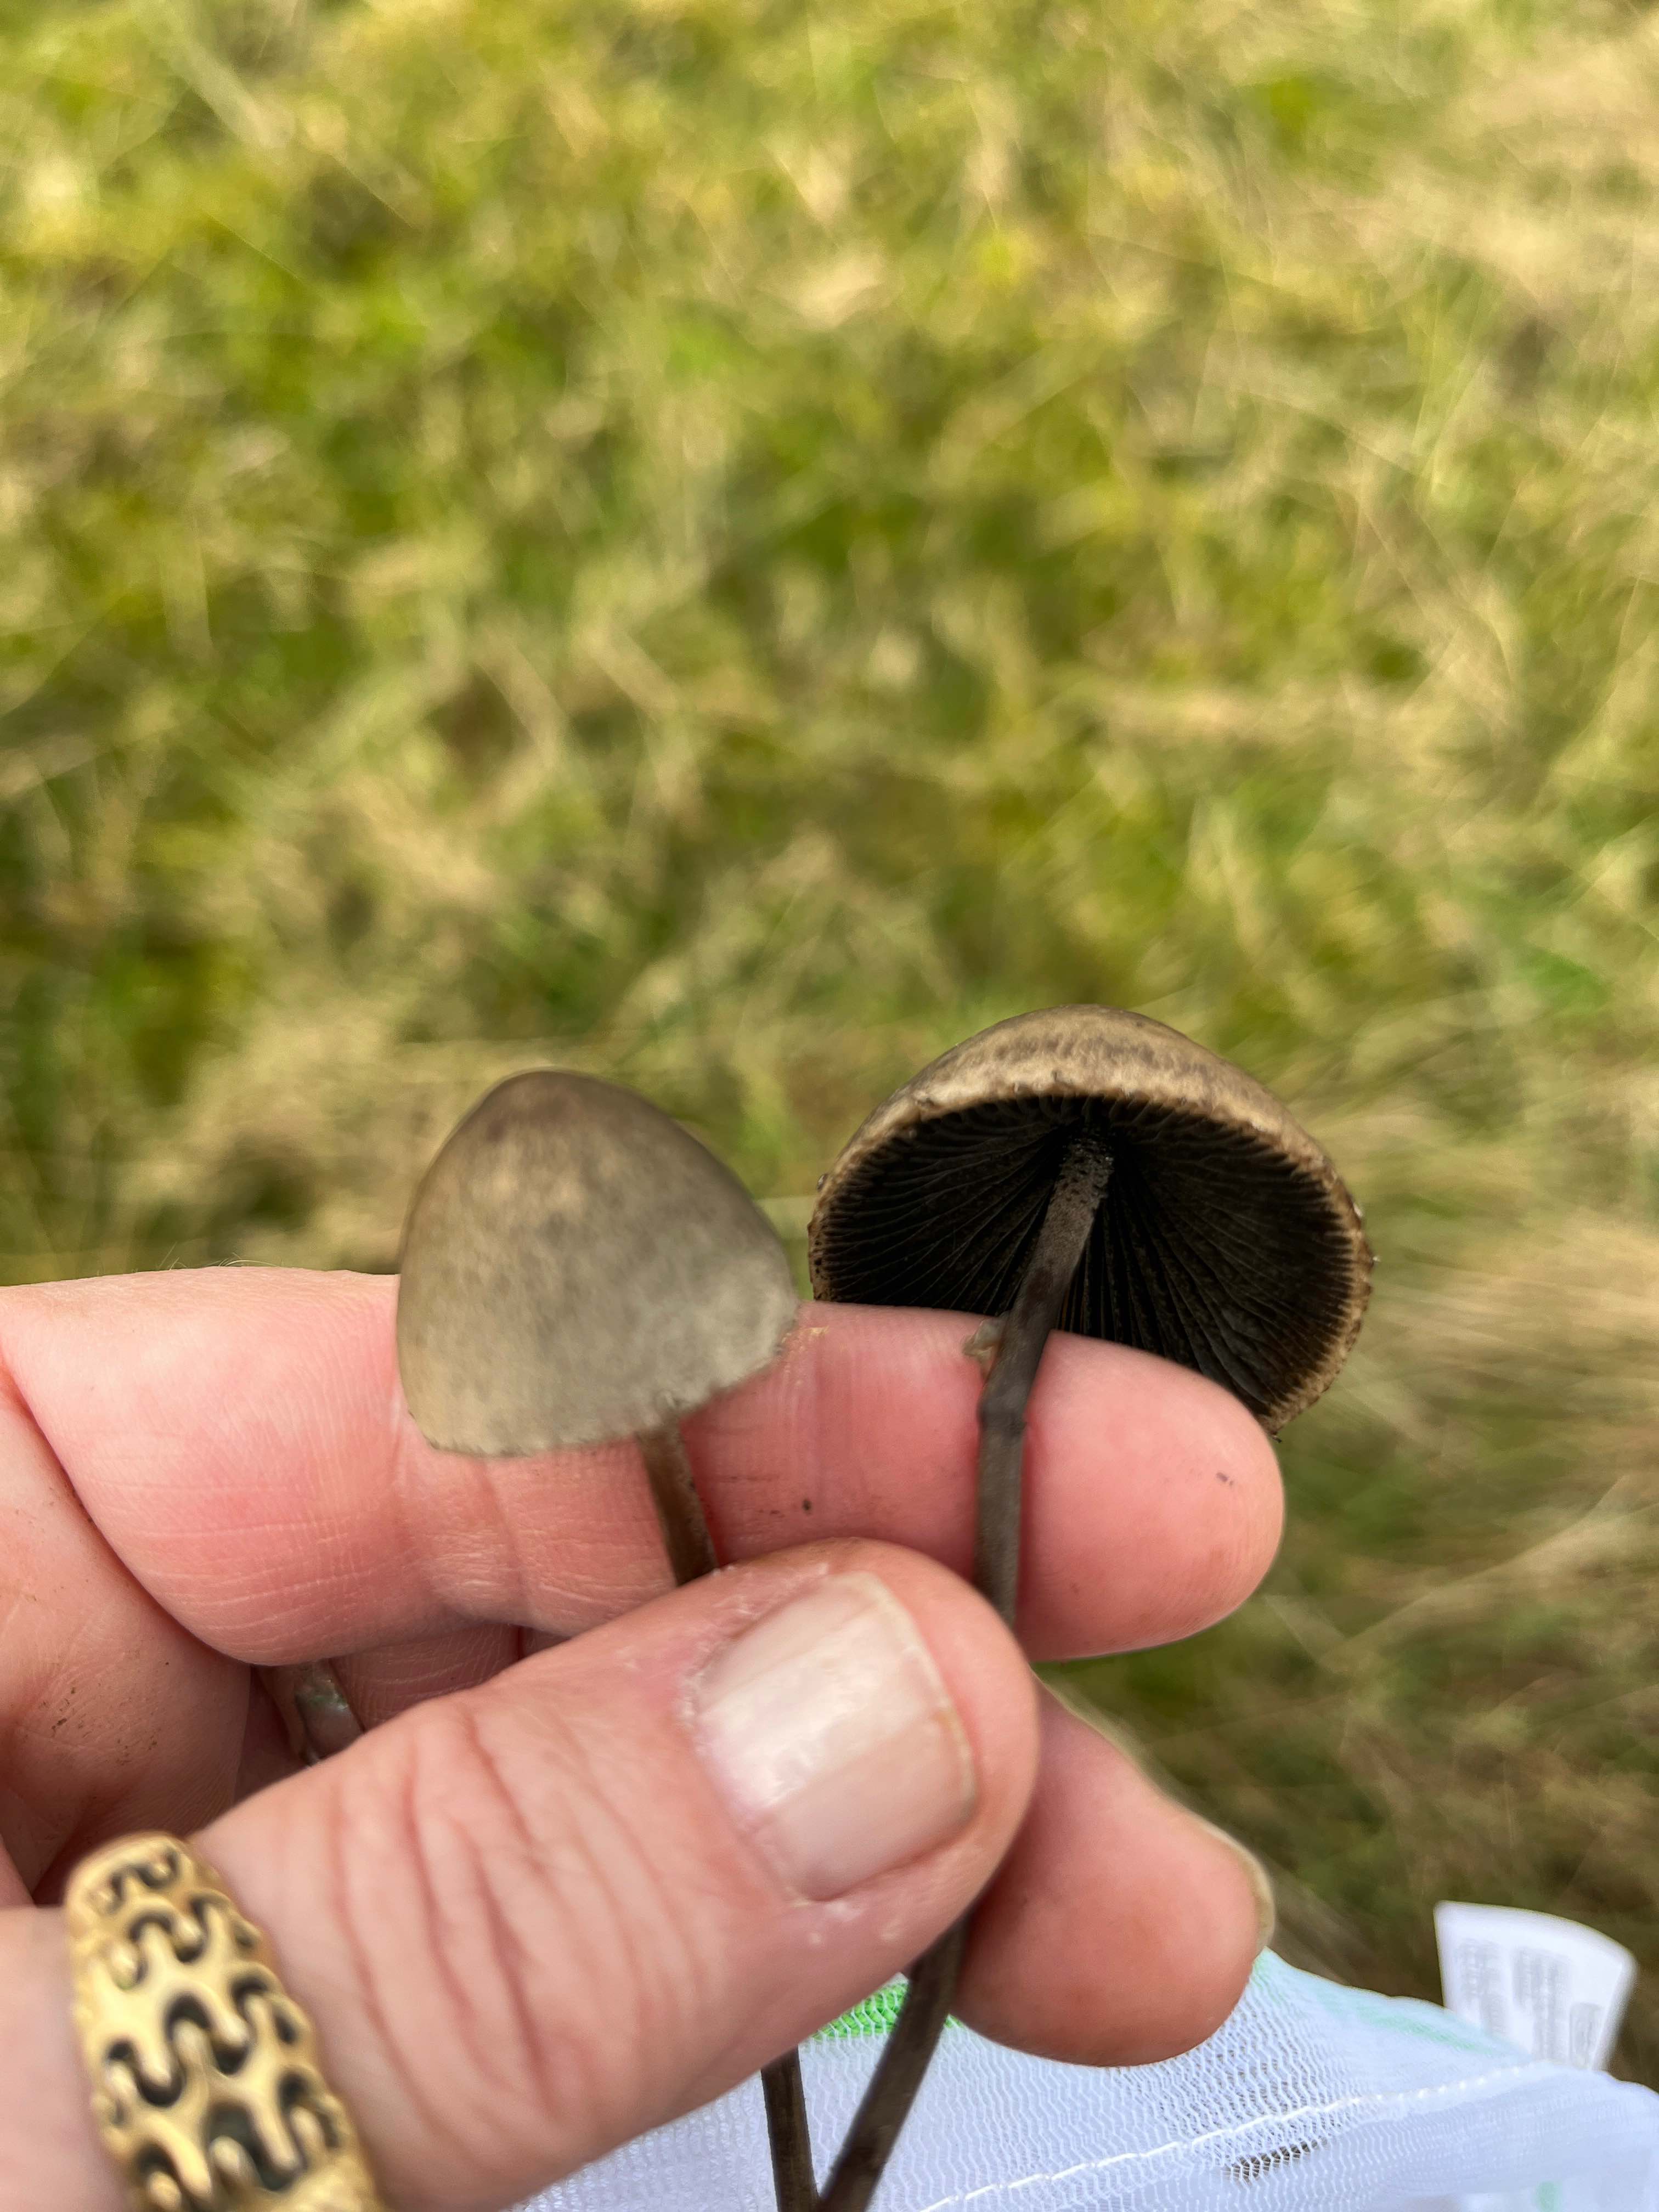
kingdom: Fungi
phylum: Basidiomycota
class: Agaricomycetes
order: Agaricales
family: Bolbitiaceae
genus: Panaeolus
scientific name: Panaeolus
